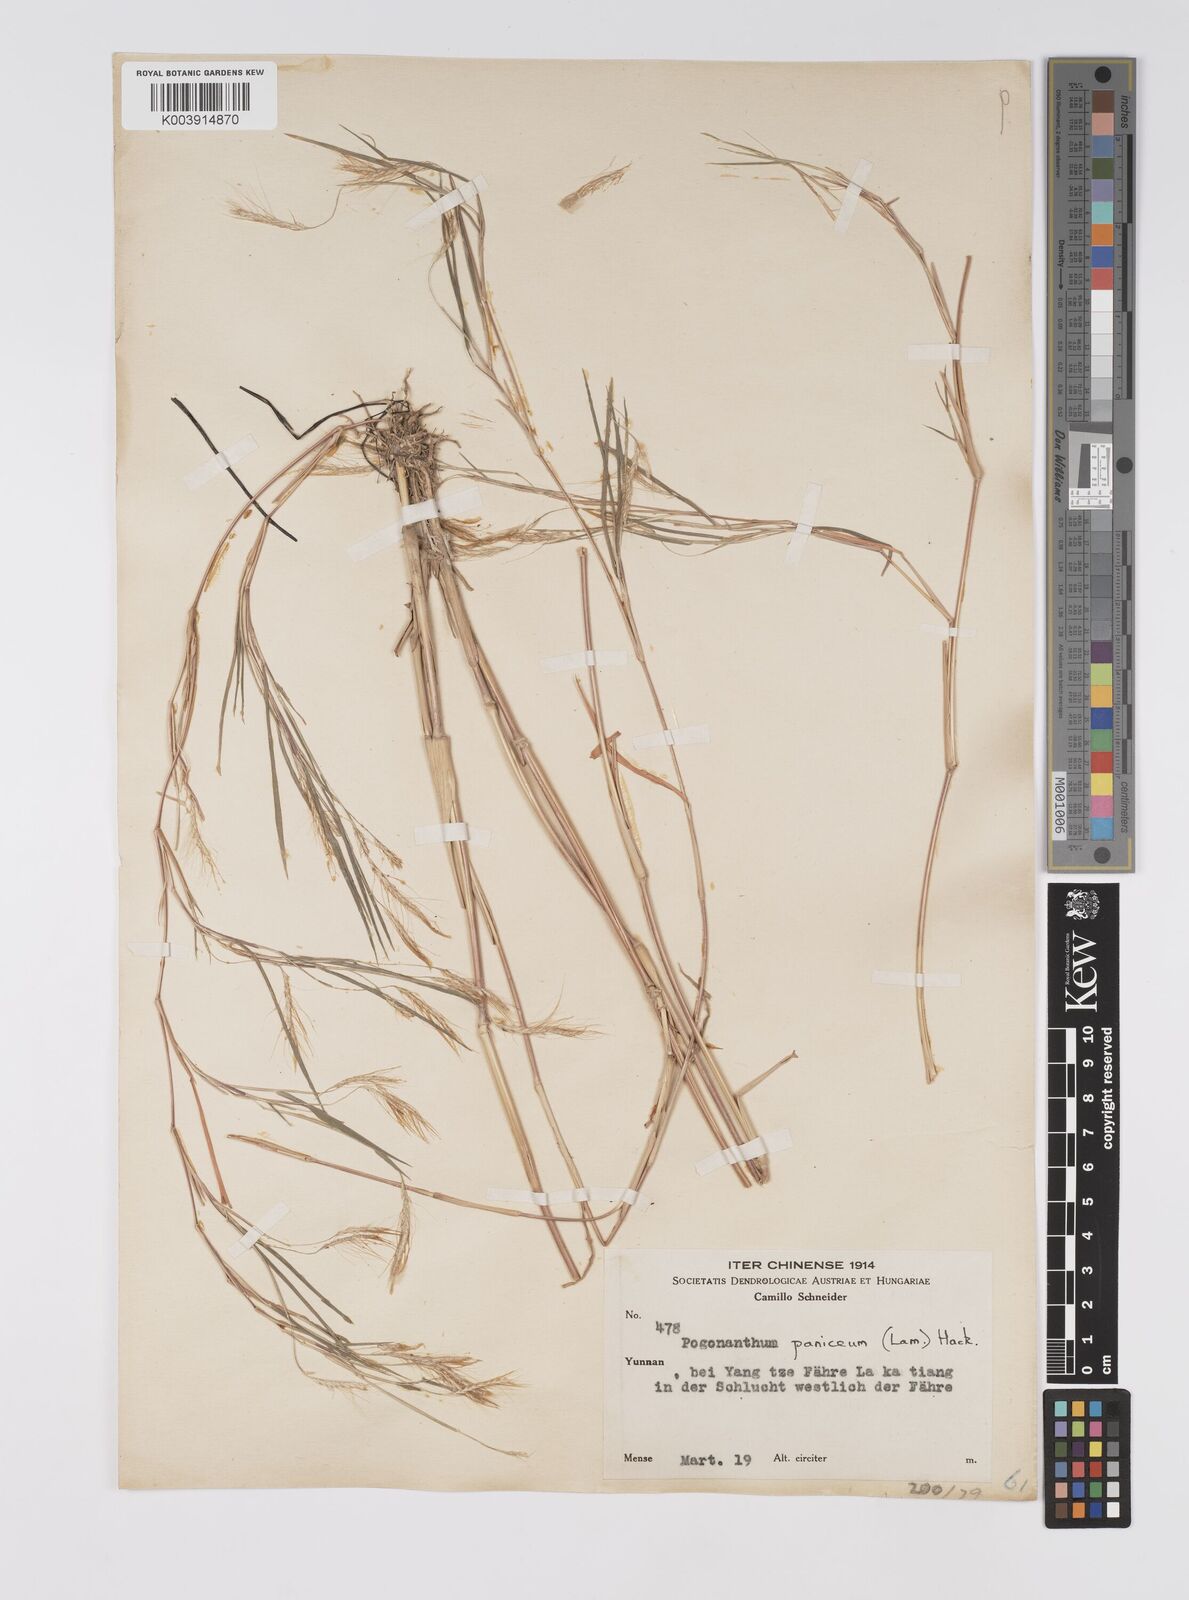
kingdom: Plantae
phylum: Tracheophyta
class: Liliopsida
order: Poales
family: Poaceae
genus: Pogonatherum
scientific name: Pogonatherum paniceum
